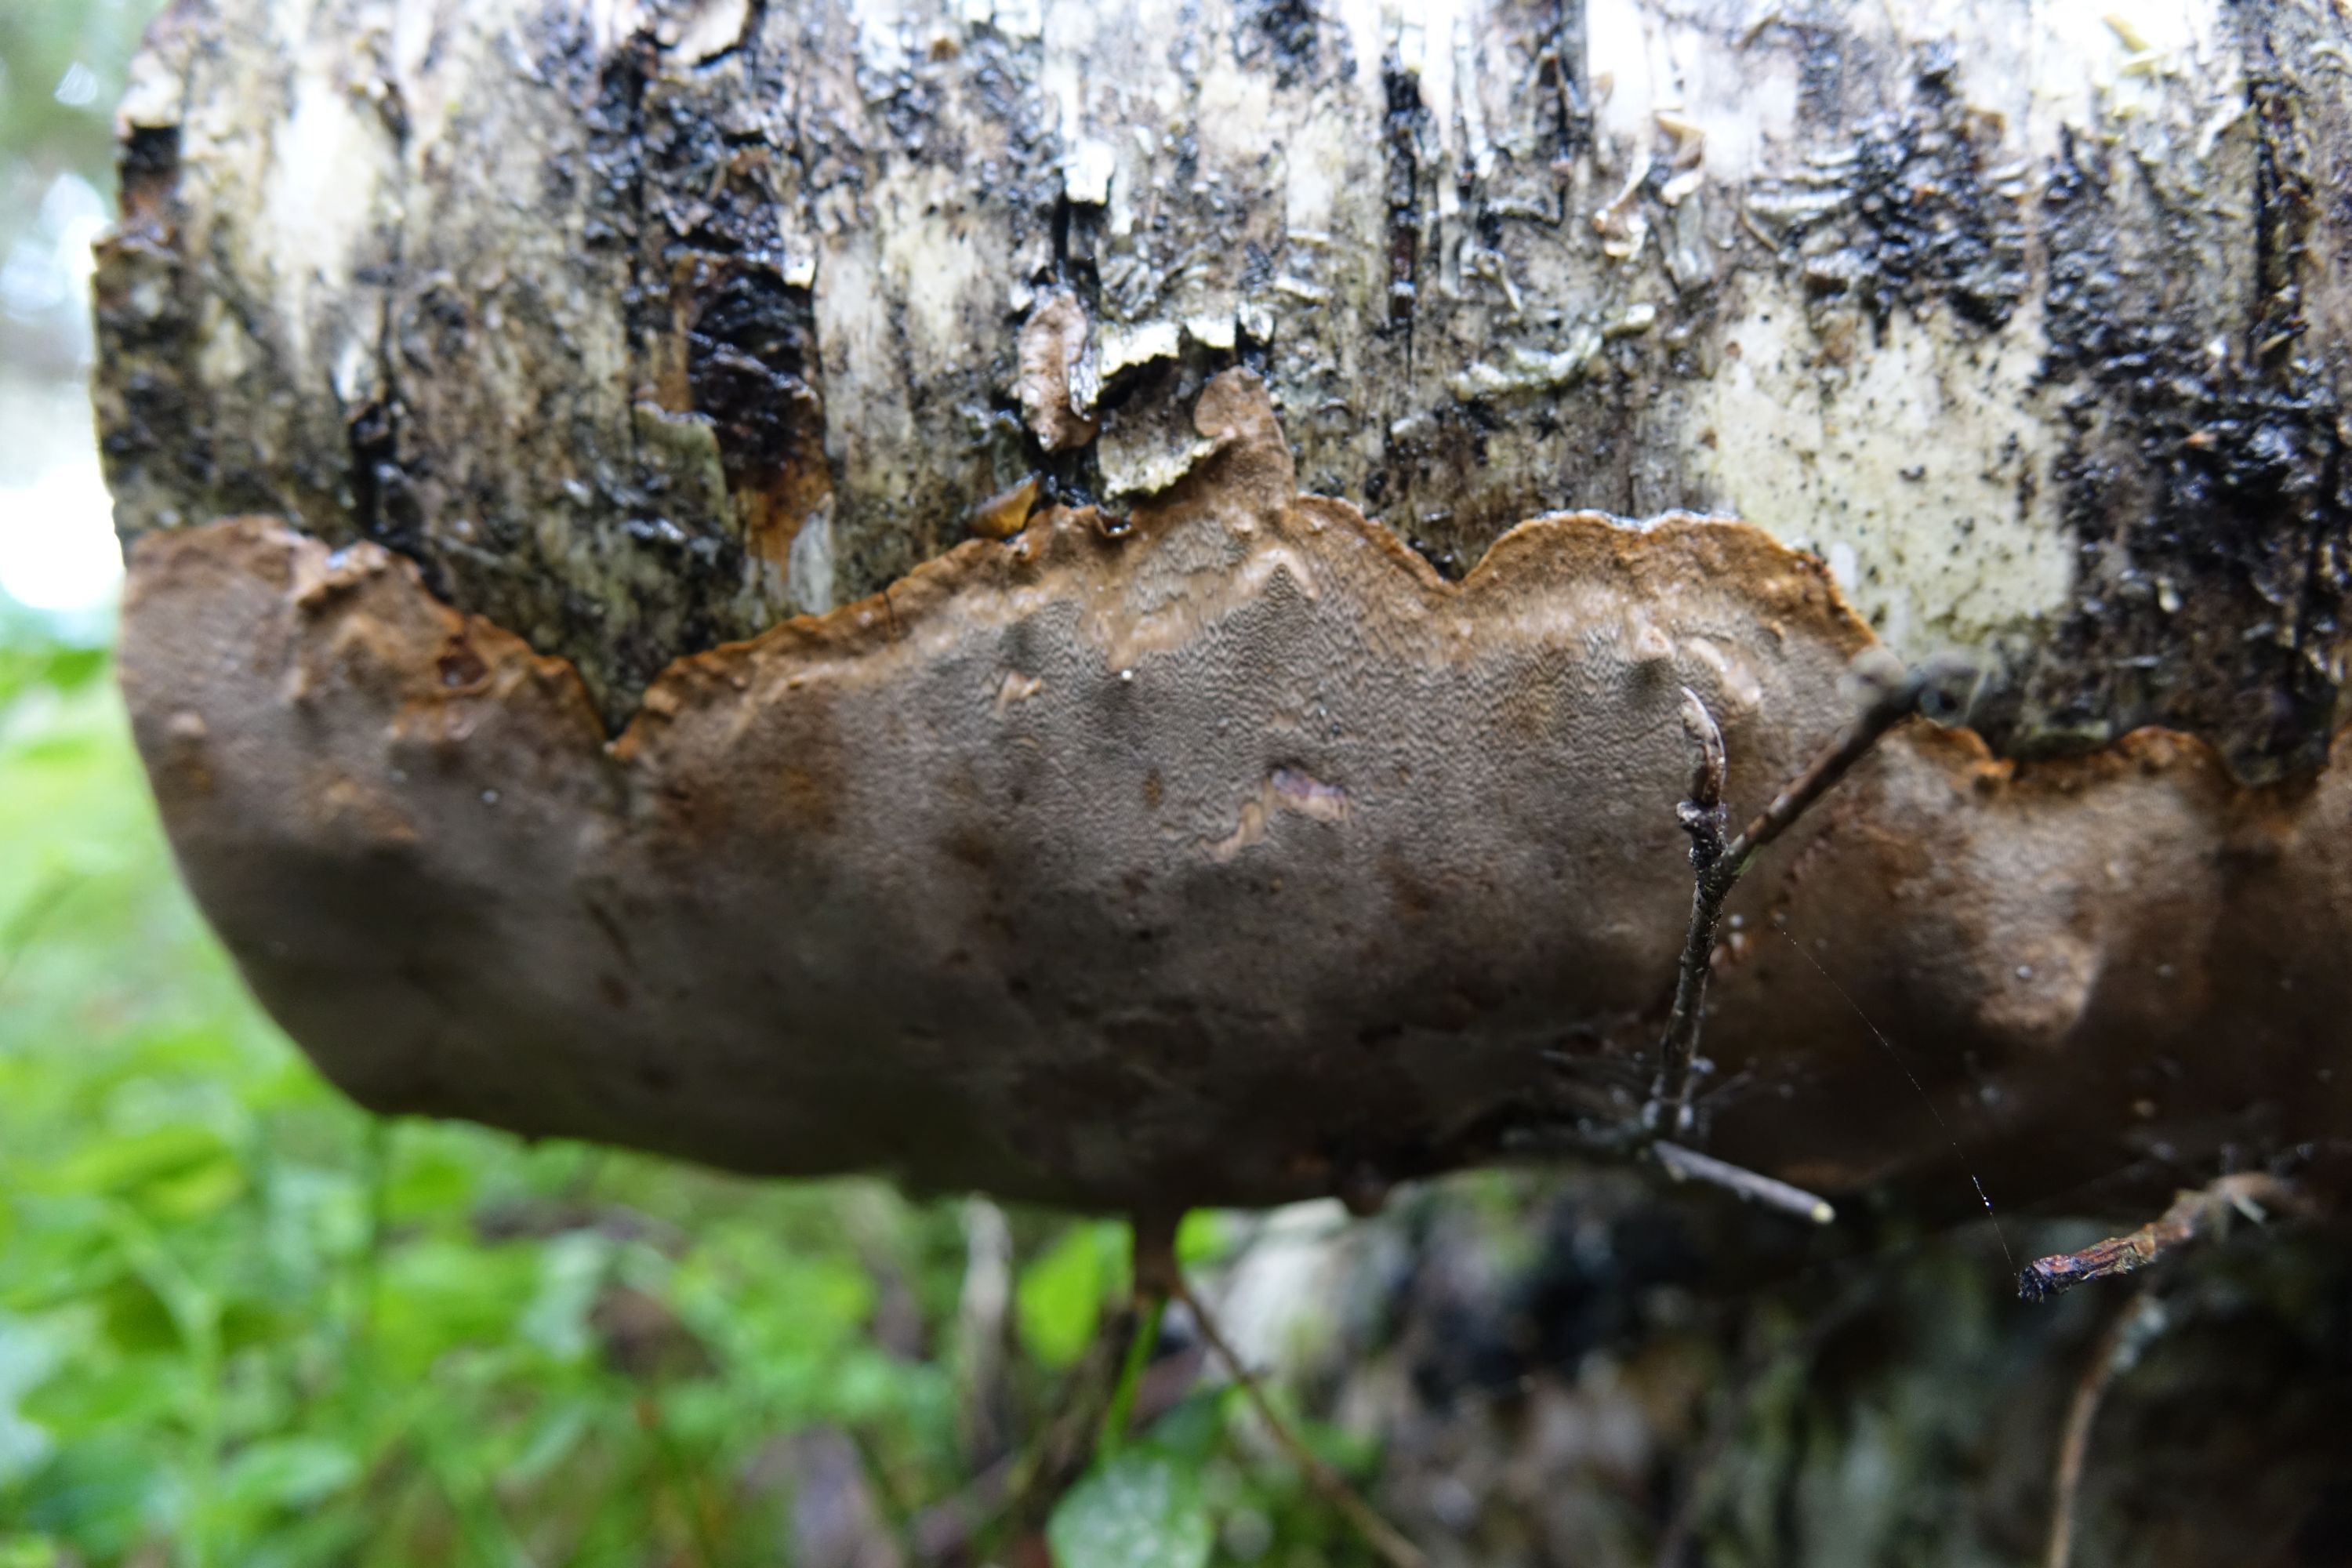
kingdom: Fungi
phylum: Basidiomycota
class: Agaricomycetes
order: Hymenochaetales
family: Hymenochaetaceae
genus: Phellinus
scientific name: Phellinus laevigatus
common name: Smooth bristle bracket
